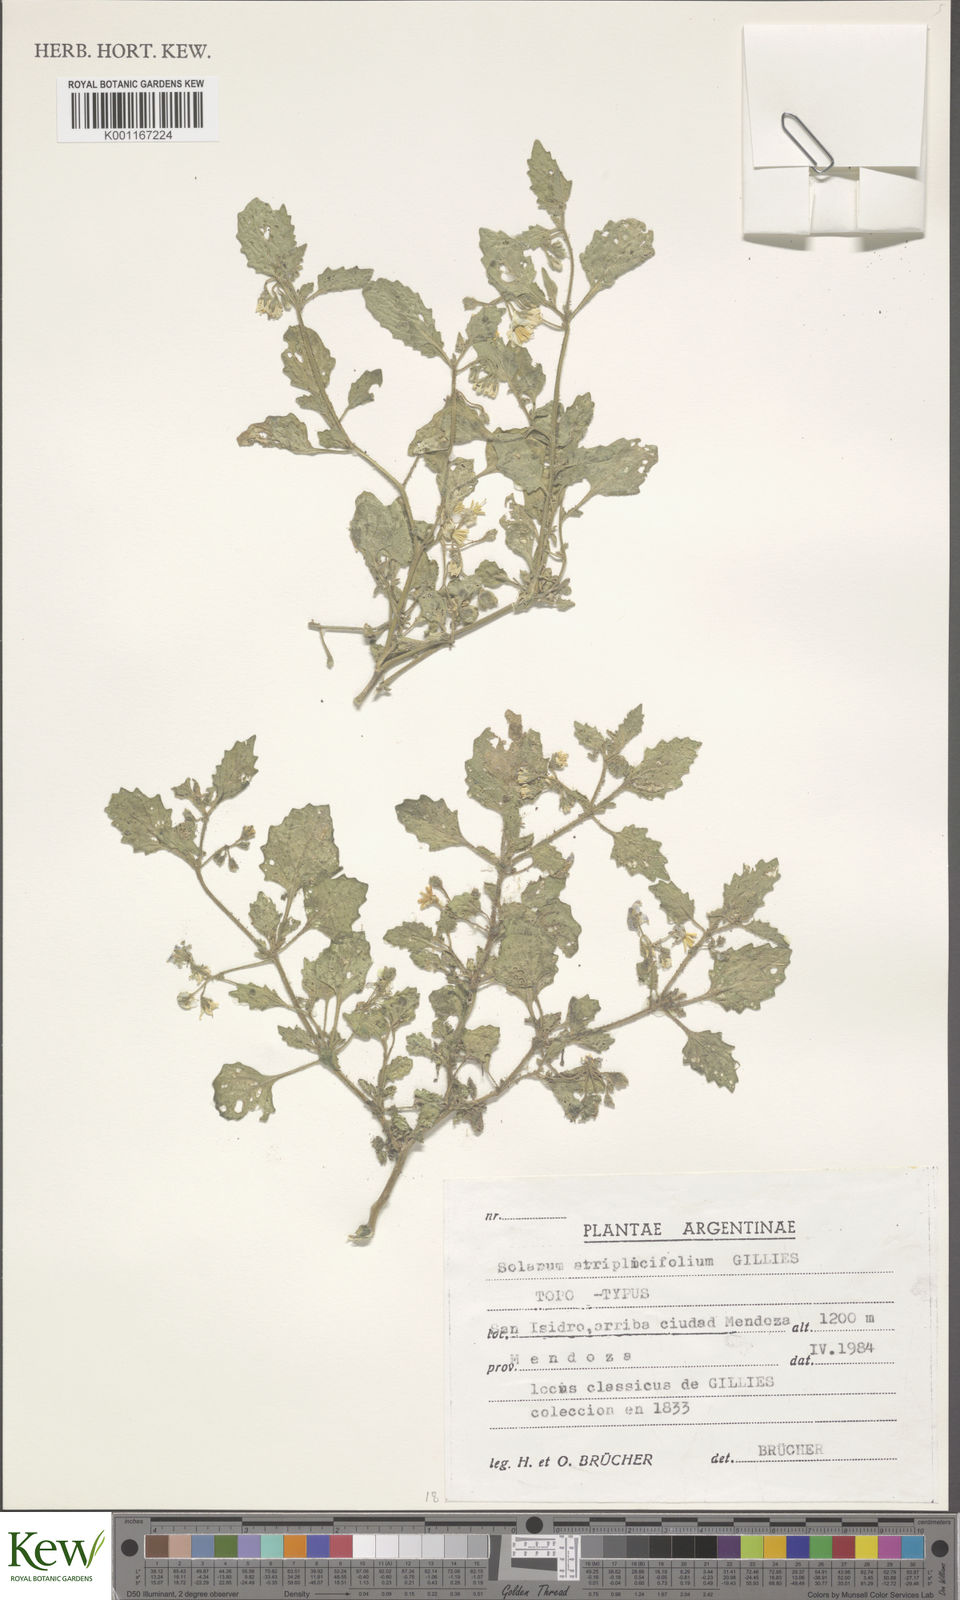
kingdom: Plantae
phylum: Tracheophyta
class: Magnoliopsida
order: Solanales
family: Solanaceae
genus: Solanum
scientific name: Solanum gardneri
